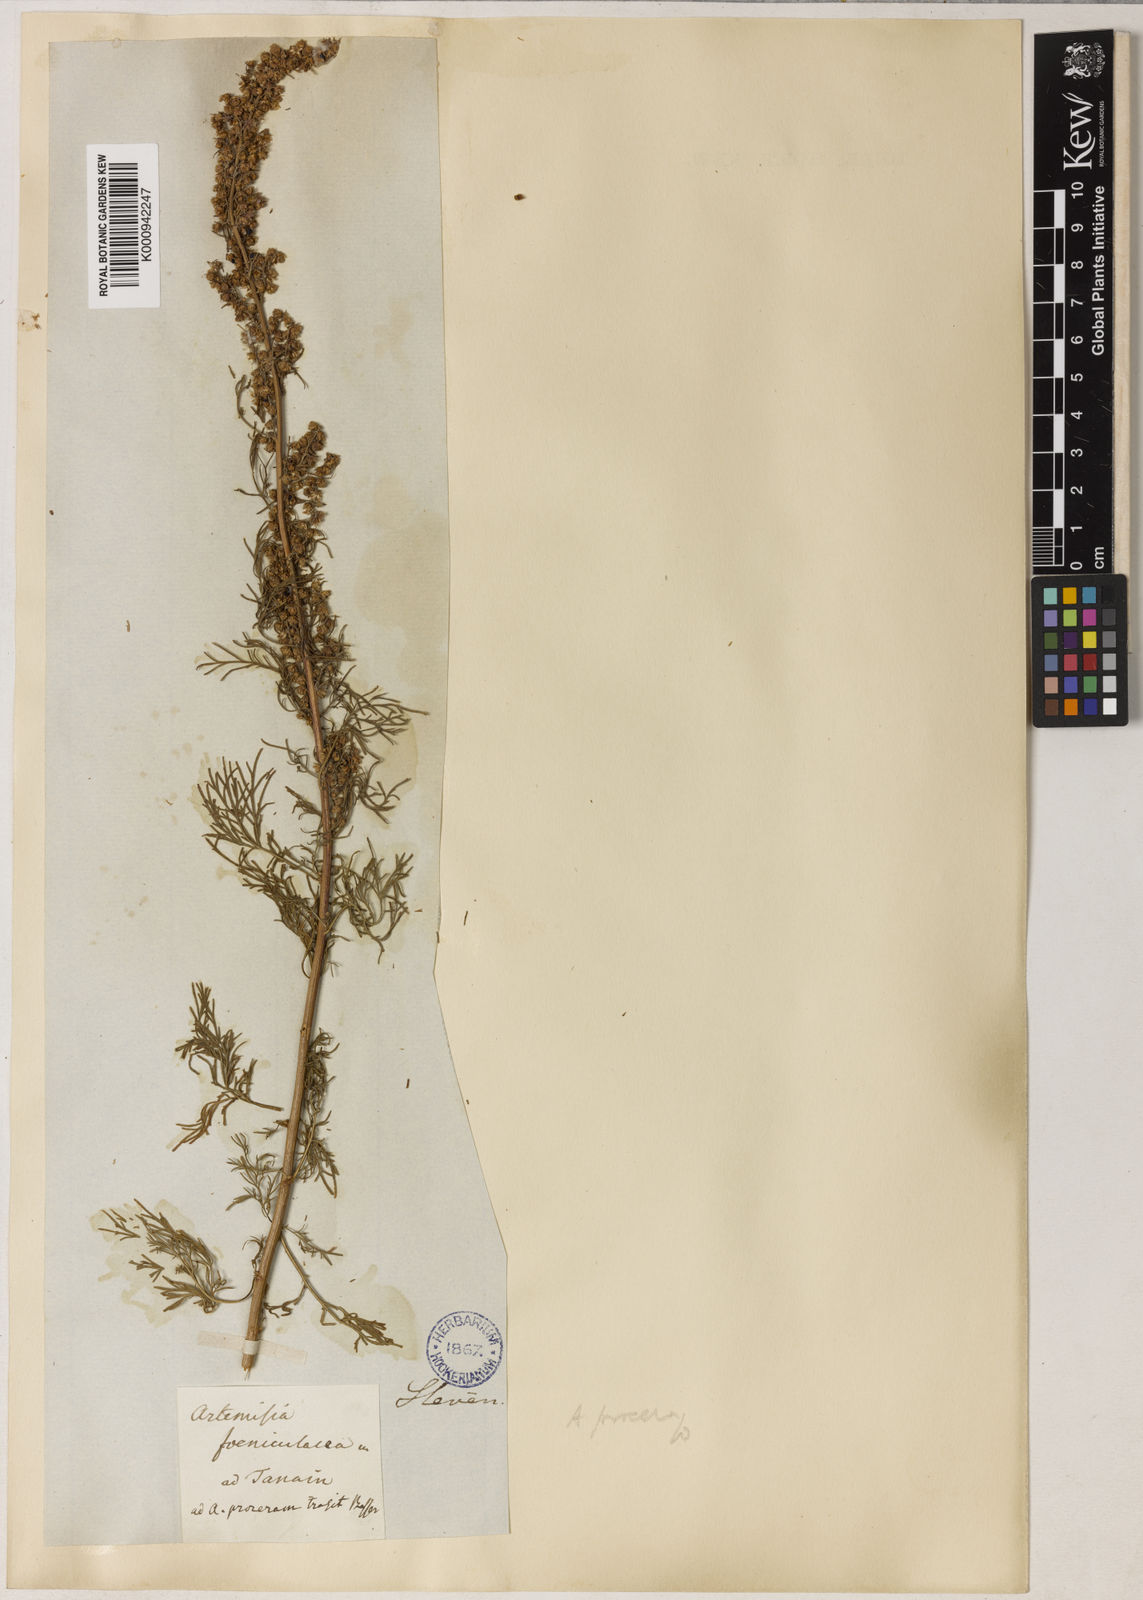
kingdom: Plantae
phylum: Tracheophyta
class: Magnoliopsida
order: Asterales
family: Asteraceae
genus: Artemisia
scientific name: Artemisia
